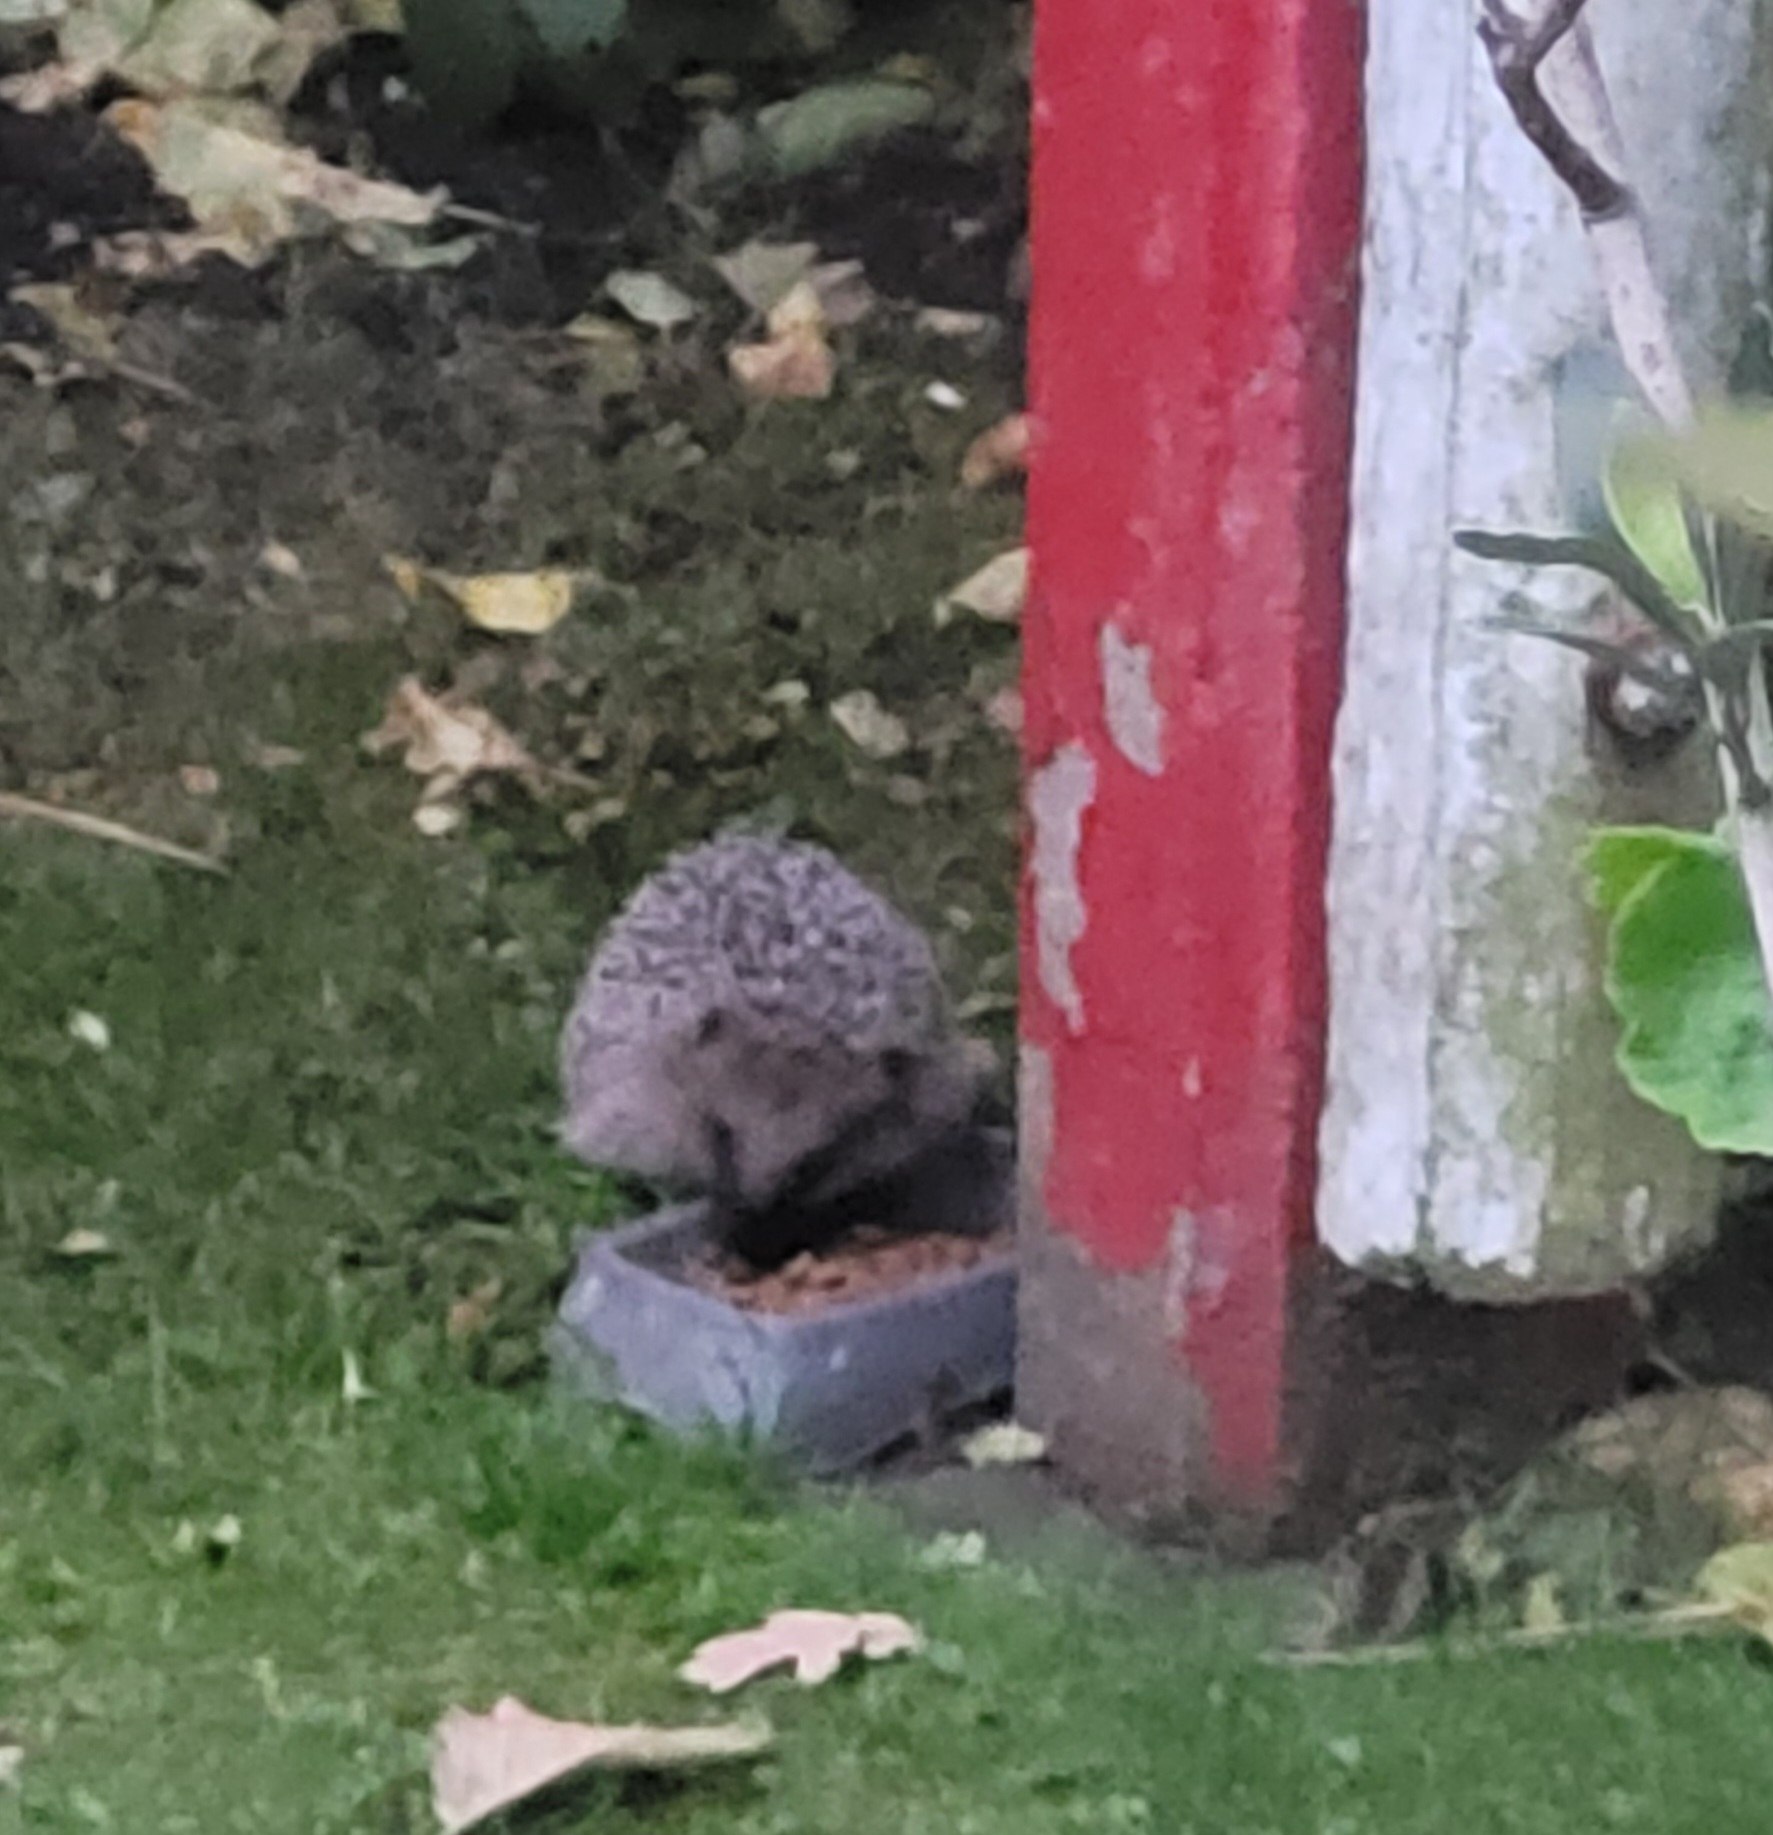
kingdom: Animalia
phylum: Chordata
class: Mammalia
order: Erinaceomorpha
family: Erinaceidae
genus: Erinaceus
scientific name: Erinaceus europaeus
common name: Pindsvin
